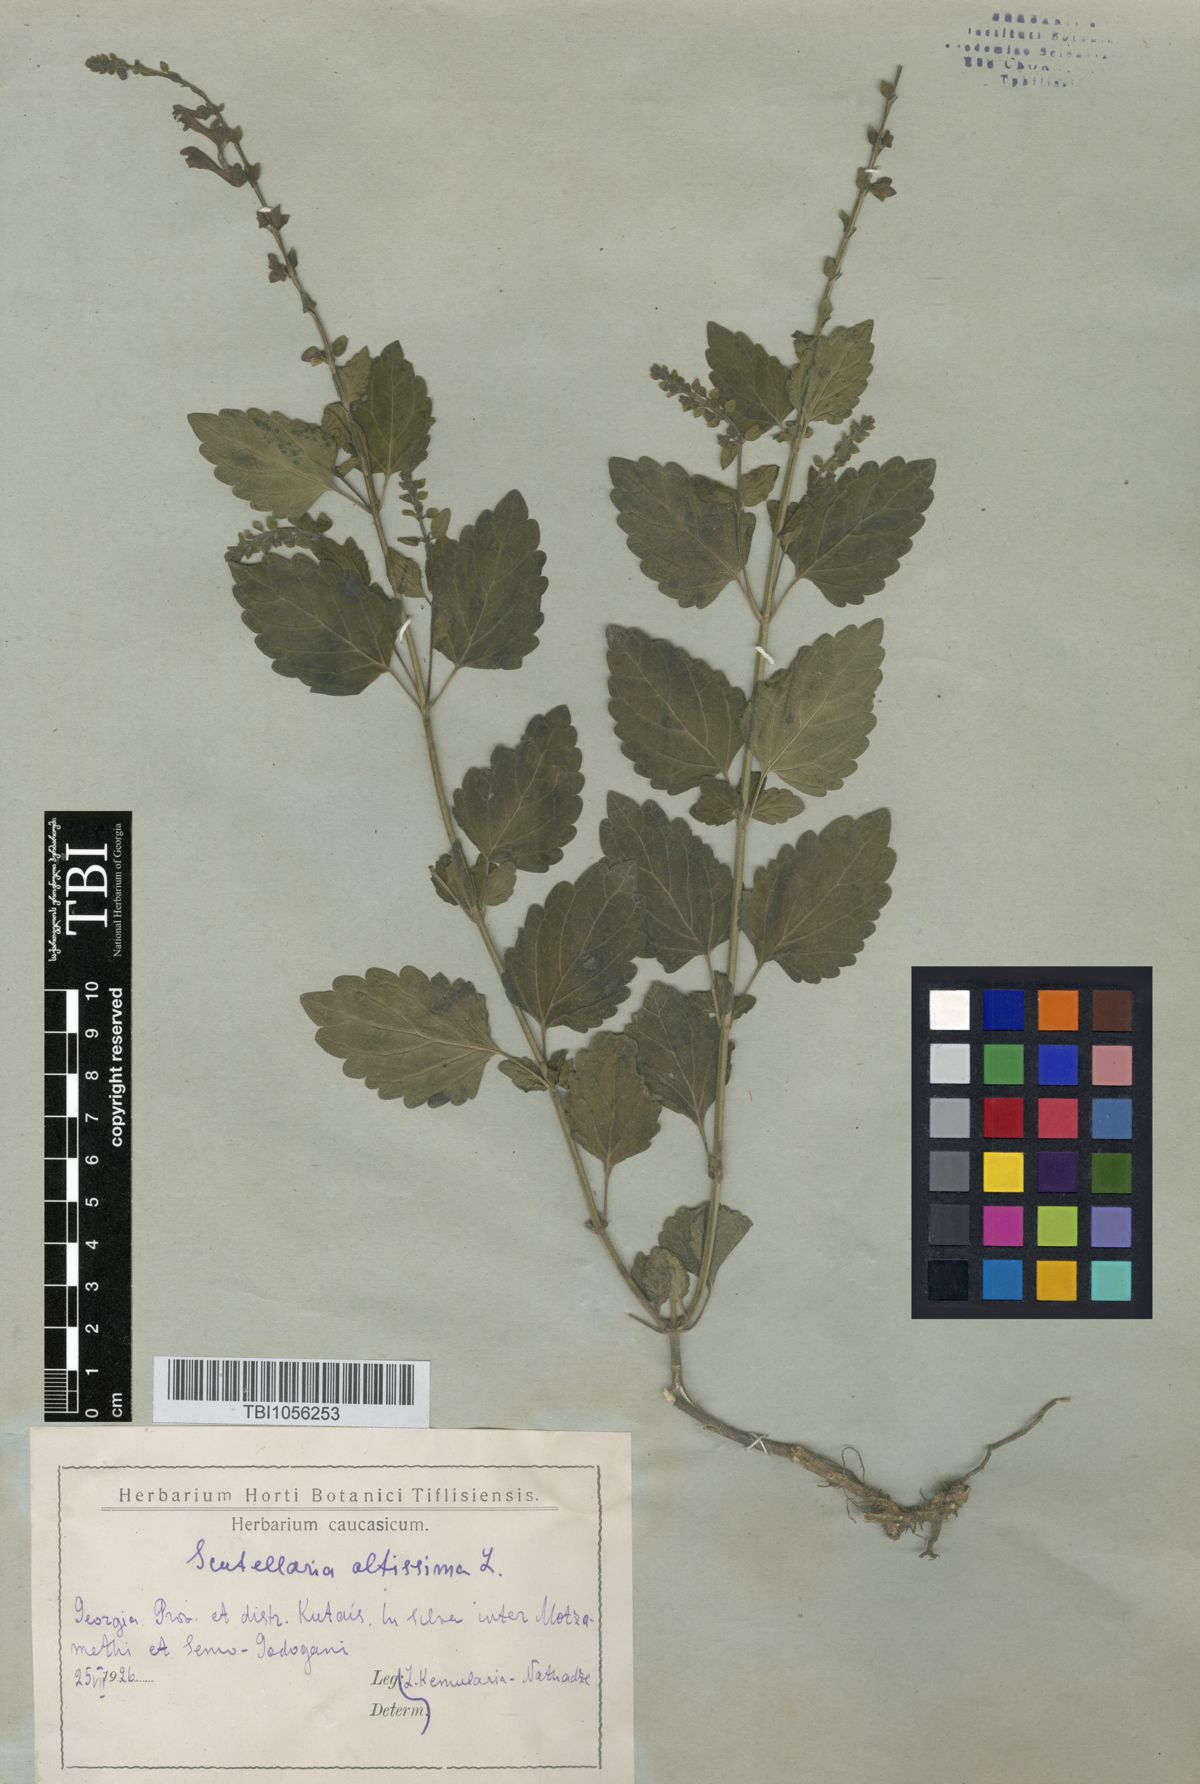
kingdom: Plantae
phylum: Tracheophyta
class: Magnoliopsida
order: Lamiales
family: Lamiaceae
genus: Scutellaria
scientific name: Scutellaria altissima
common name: Somerset skullcap
